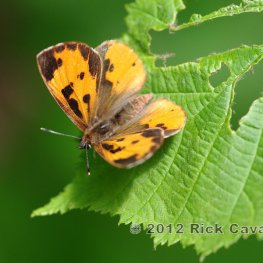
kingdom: Animalia
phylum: Arthropoda
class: Insecta
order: Lepidoptera
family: Lycaenidae
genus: Feniseca
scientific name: Feniseca tarquinius
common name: Harvester
